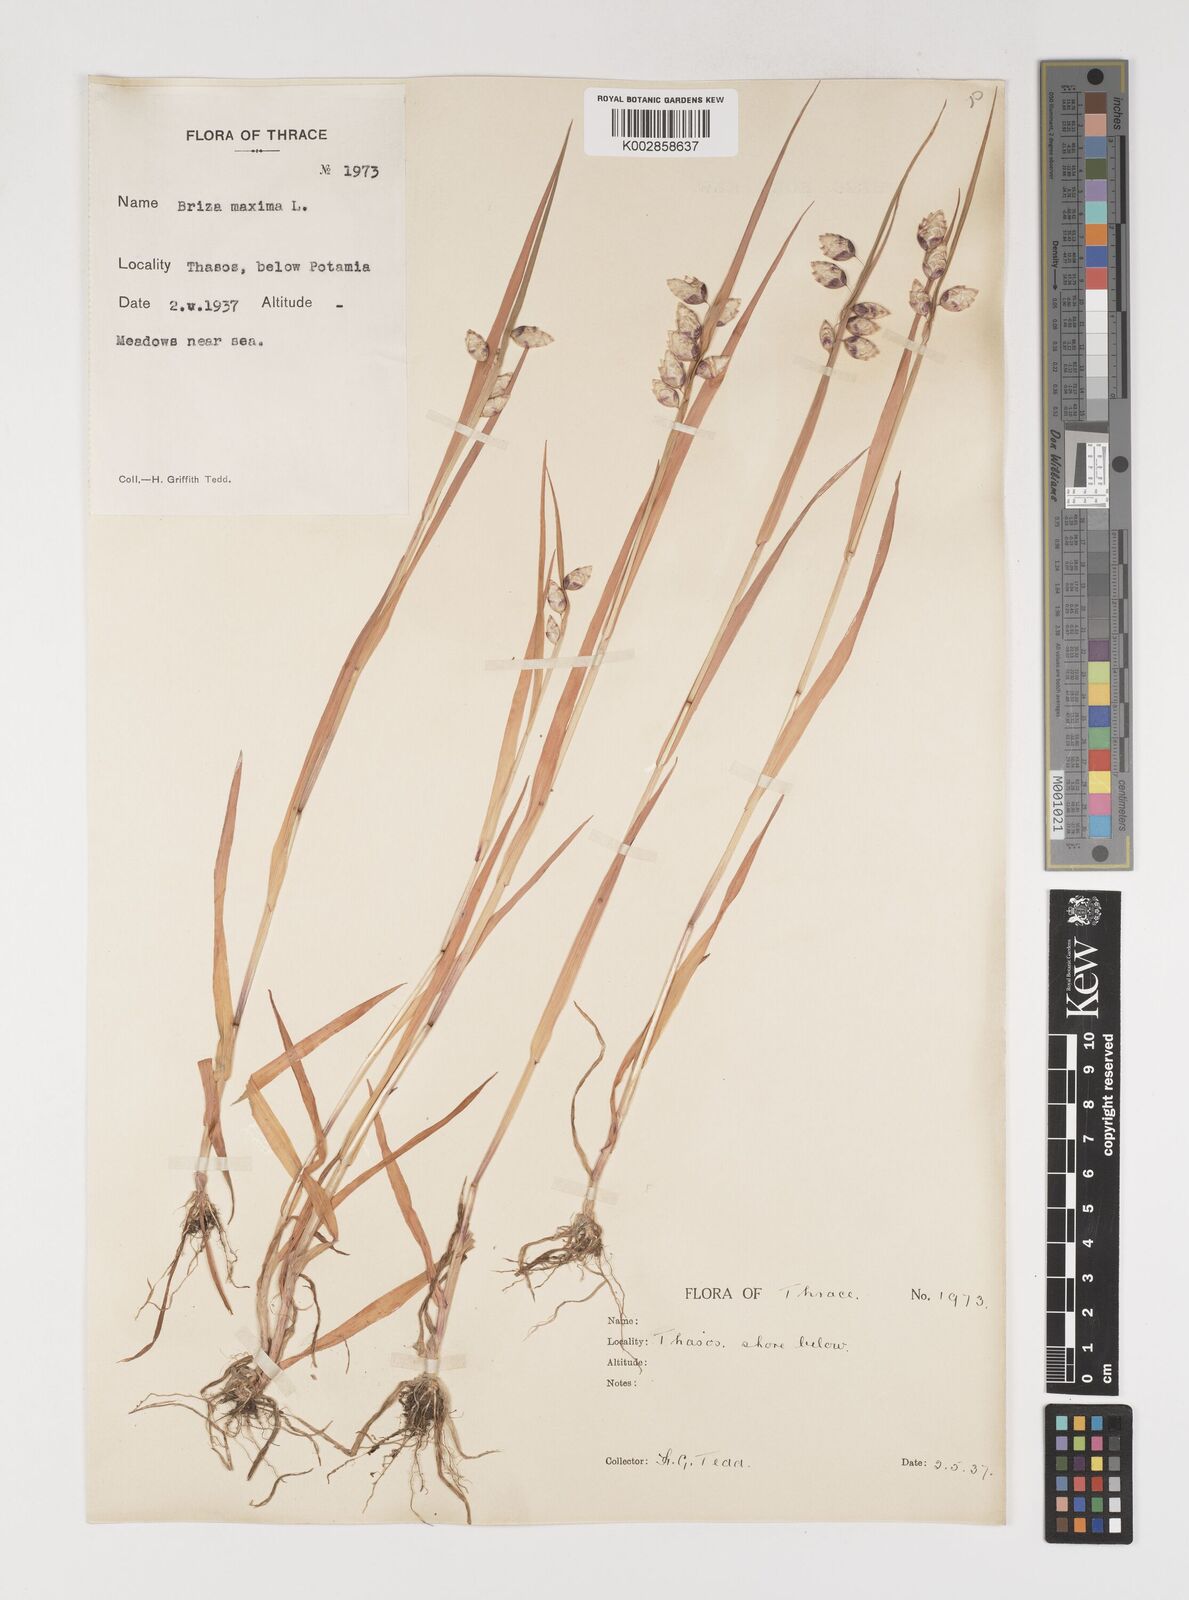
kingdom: Plantae
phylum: Tracheophyta
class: Liliopsida
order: Poales
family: Poaceae
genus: Briza
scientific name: Briza maxima
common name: Big quakinggrass
